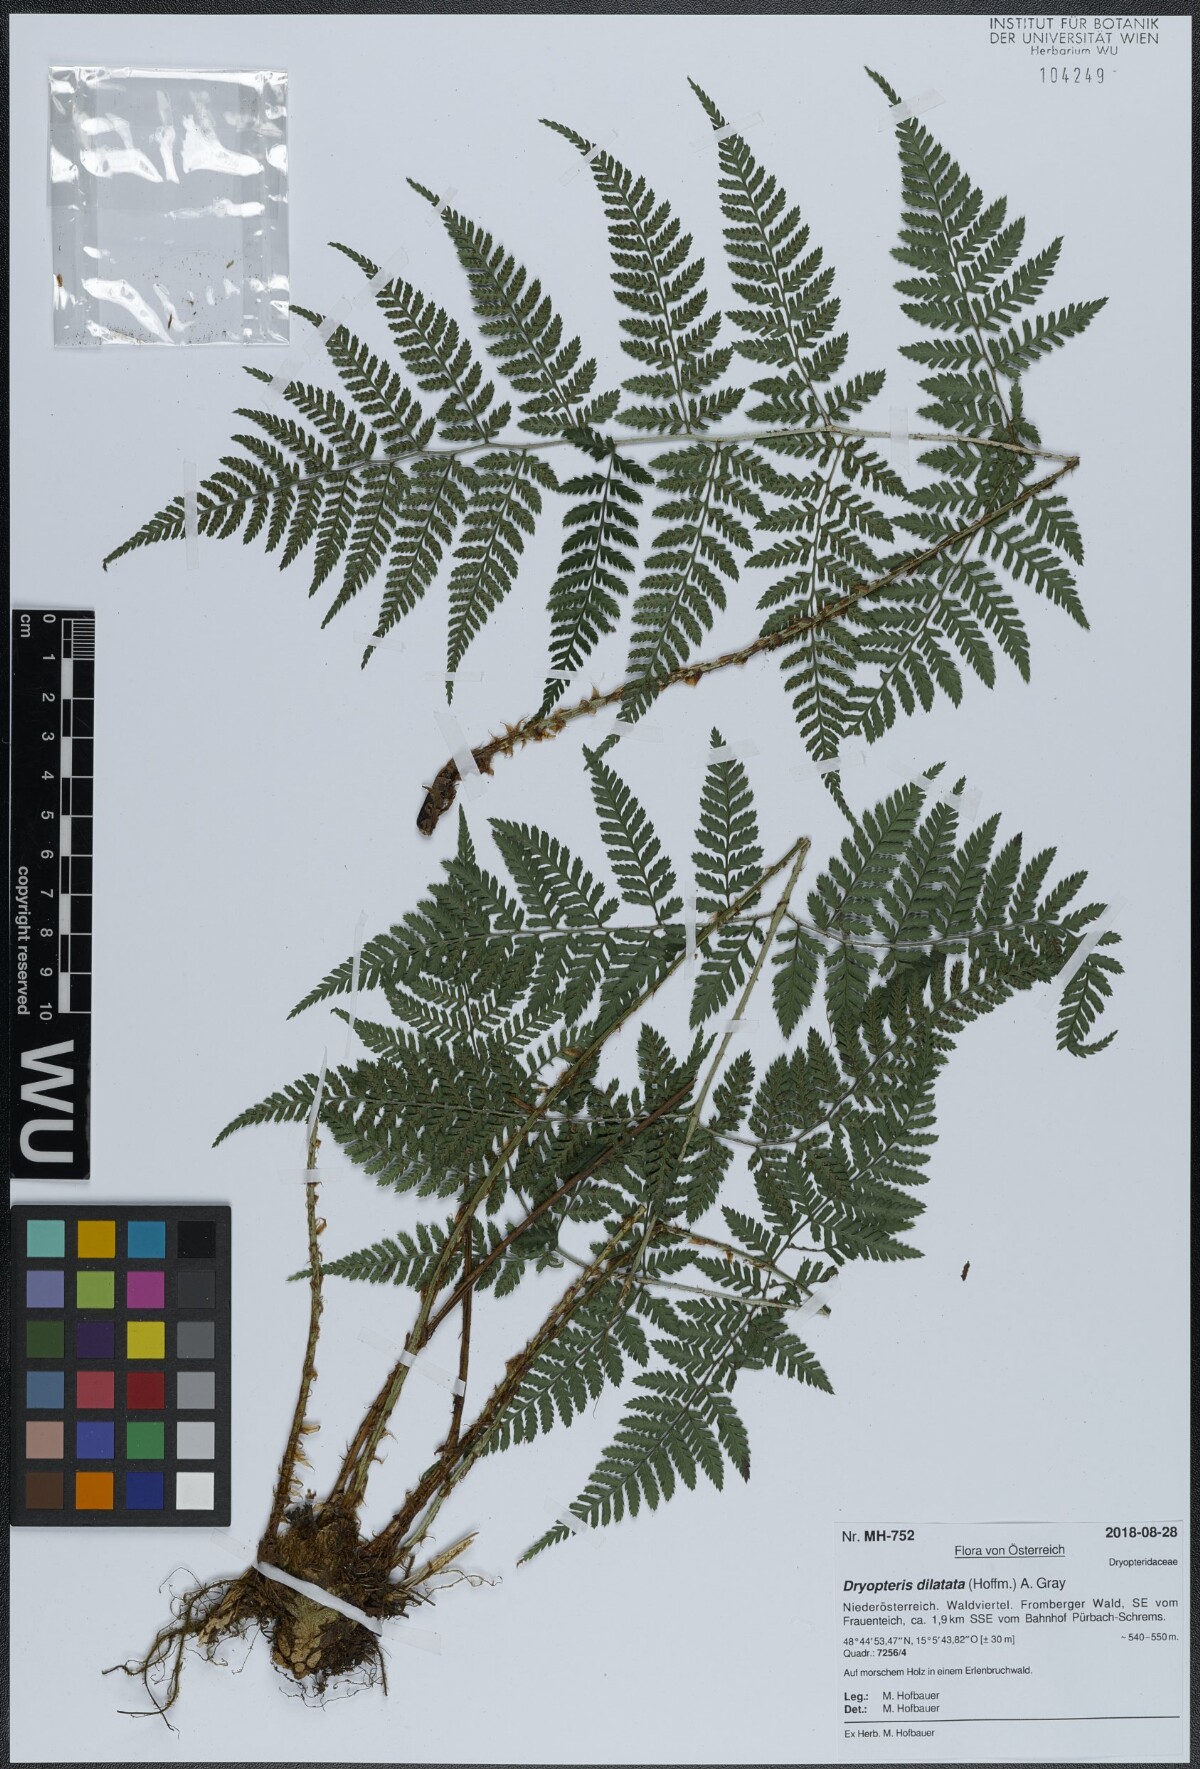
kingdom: Plantae
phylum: Tracheophyta
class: Polypodiopsida
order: Polypodiales
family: Dryopteridaceae
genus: Dryopteris
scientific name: Dryopteris dilatata
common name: Broad buckler-fern
